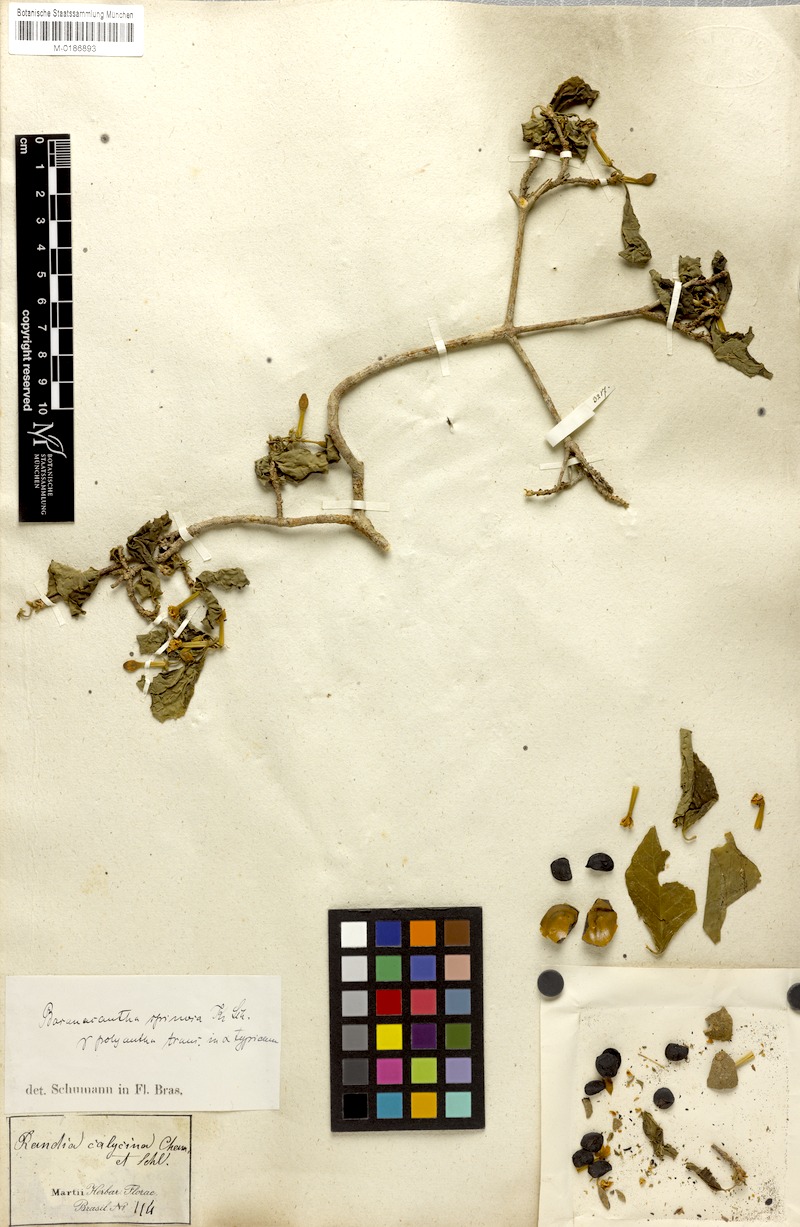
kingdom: Plantae
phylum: Tracheophyta
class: Magnoliopsida
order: Gentianales
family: Rubiaceae
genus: Randia
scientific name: Randia armata
